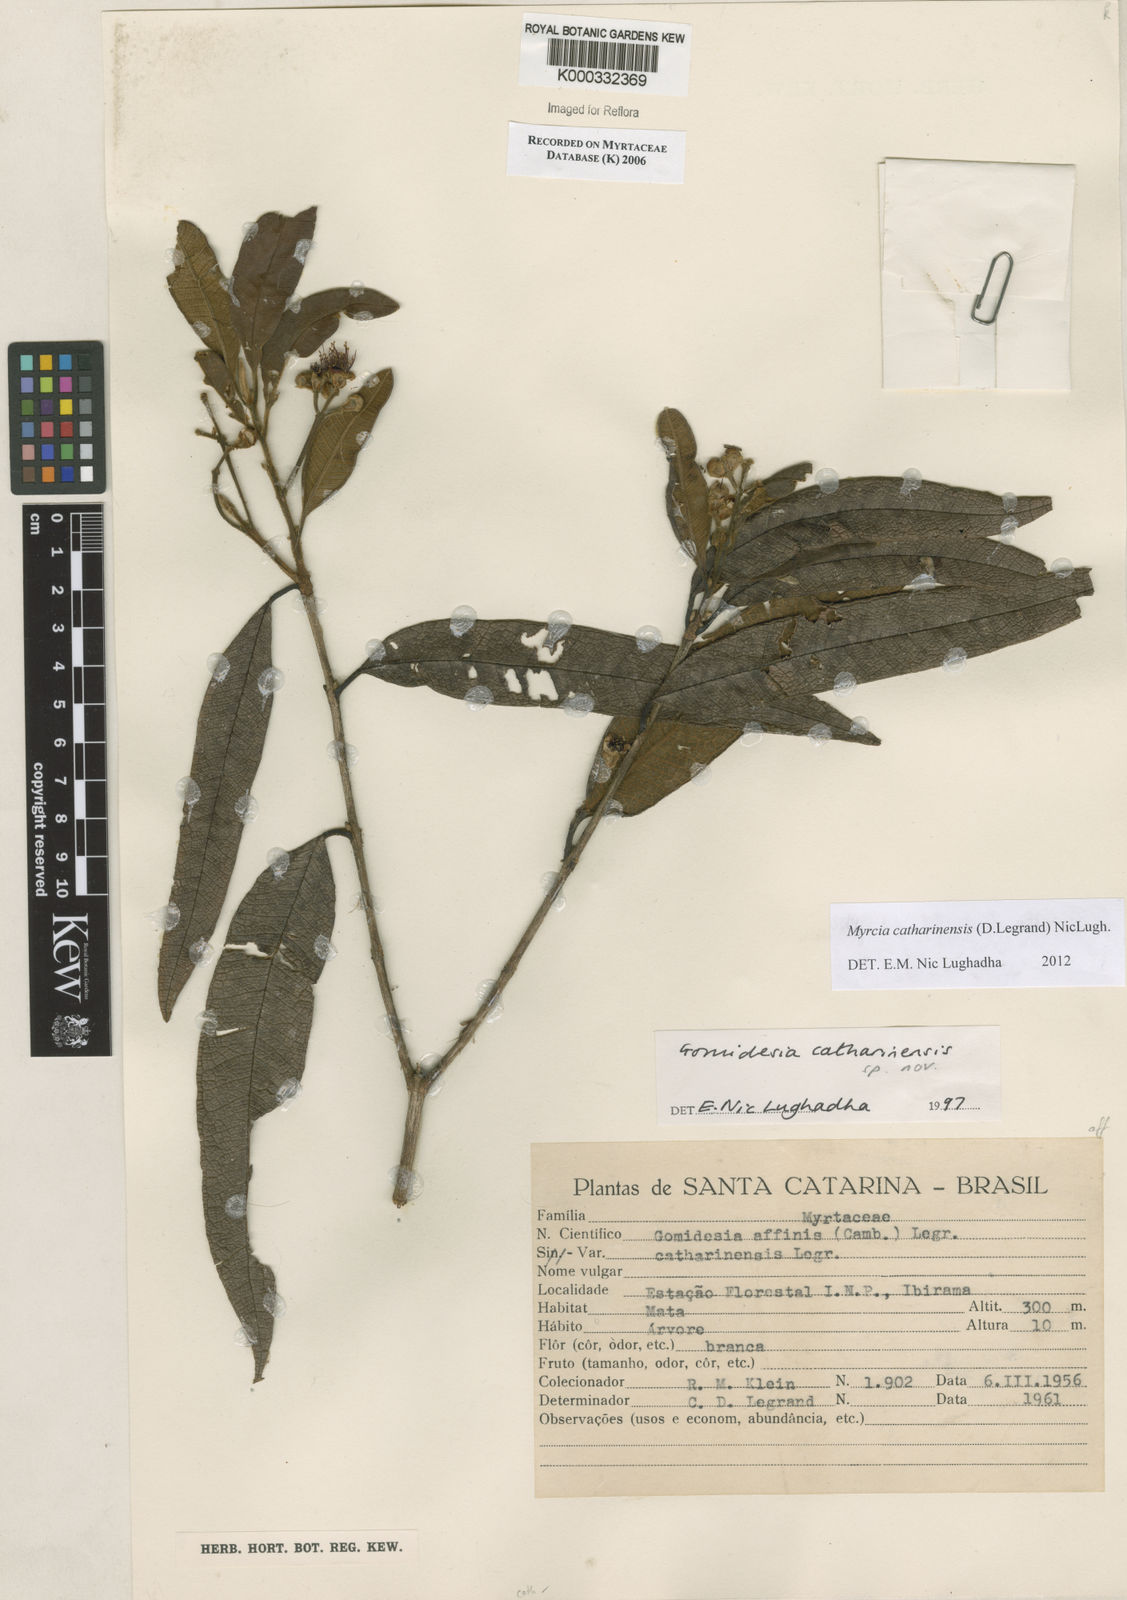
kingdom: Plantae
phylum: Tracheophyta
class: Magnoliopsida
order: Myrtales
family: Myrtaceae
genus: Myrcia
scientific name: Myrcia catharinensis
